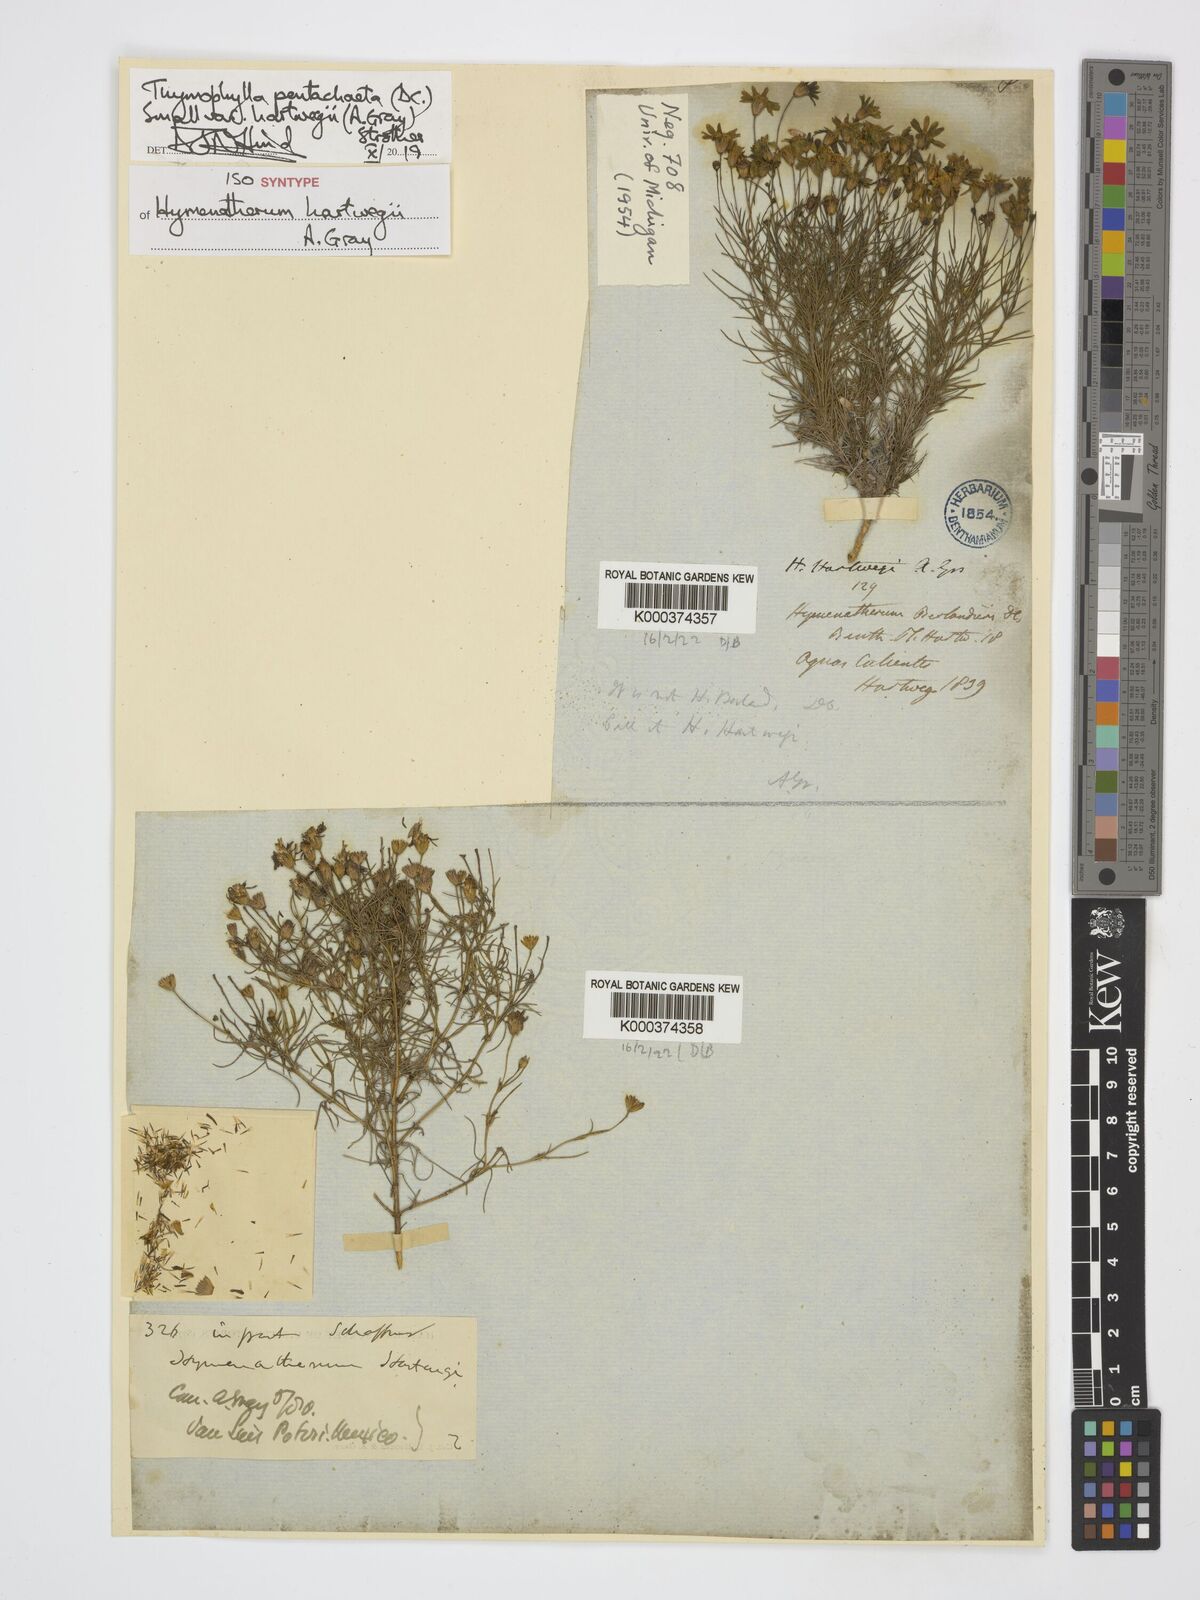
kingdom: Plantae
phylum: Tracheophyta
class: Magnoliopsida
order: Asterales
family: Asteraceae
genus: Thymophylla
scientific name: Thymophylla pentachaeta
